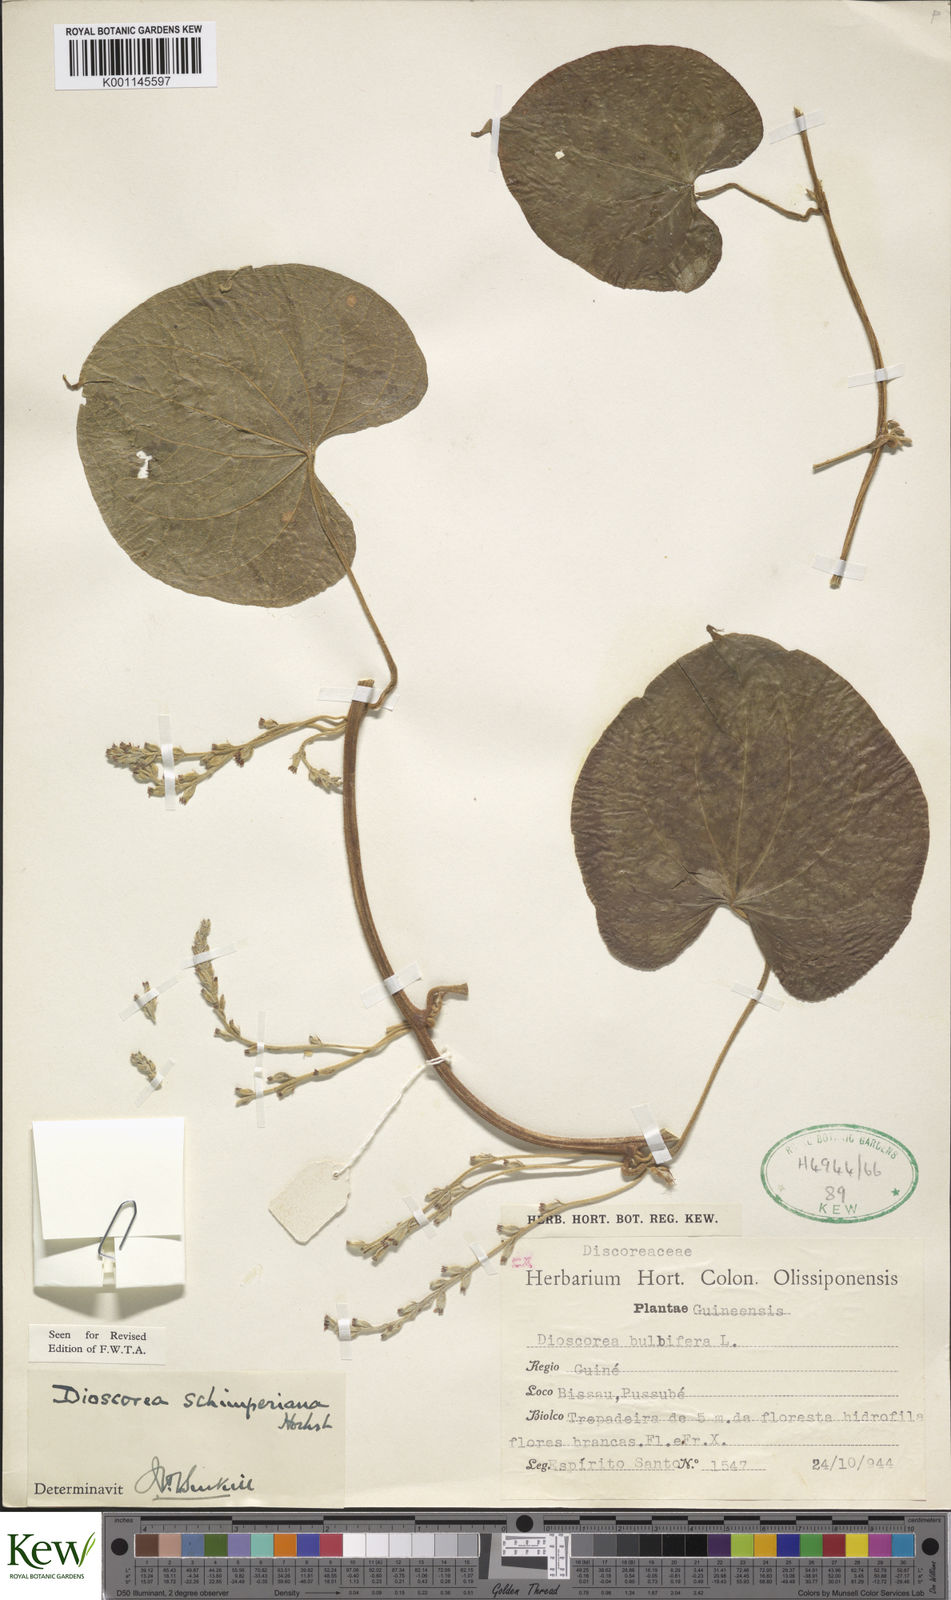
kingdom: Plantae
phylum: Tracheophyta
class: Liliopsida
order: Dioscoreales
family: Dioscoreaceae
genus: Dioscorea
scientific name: Dioscorea schimperiana
